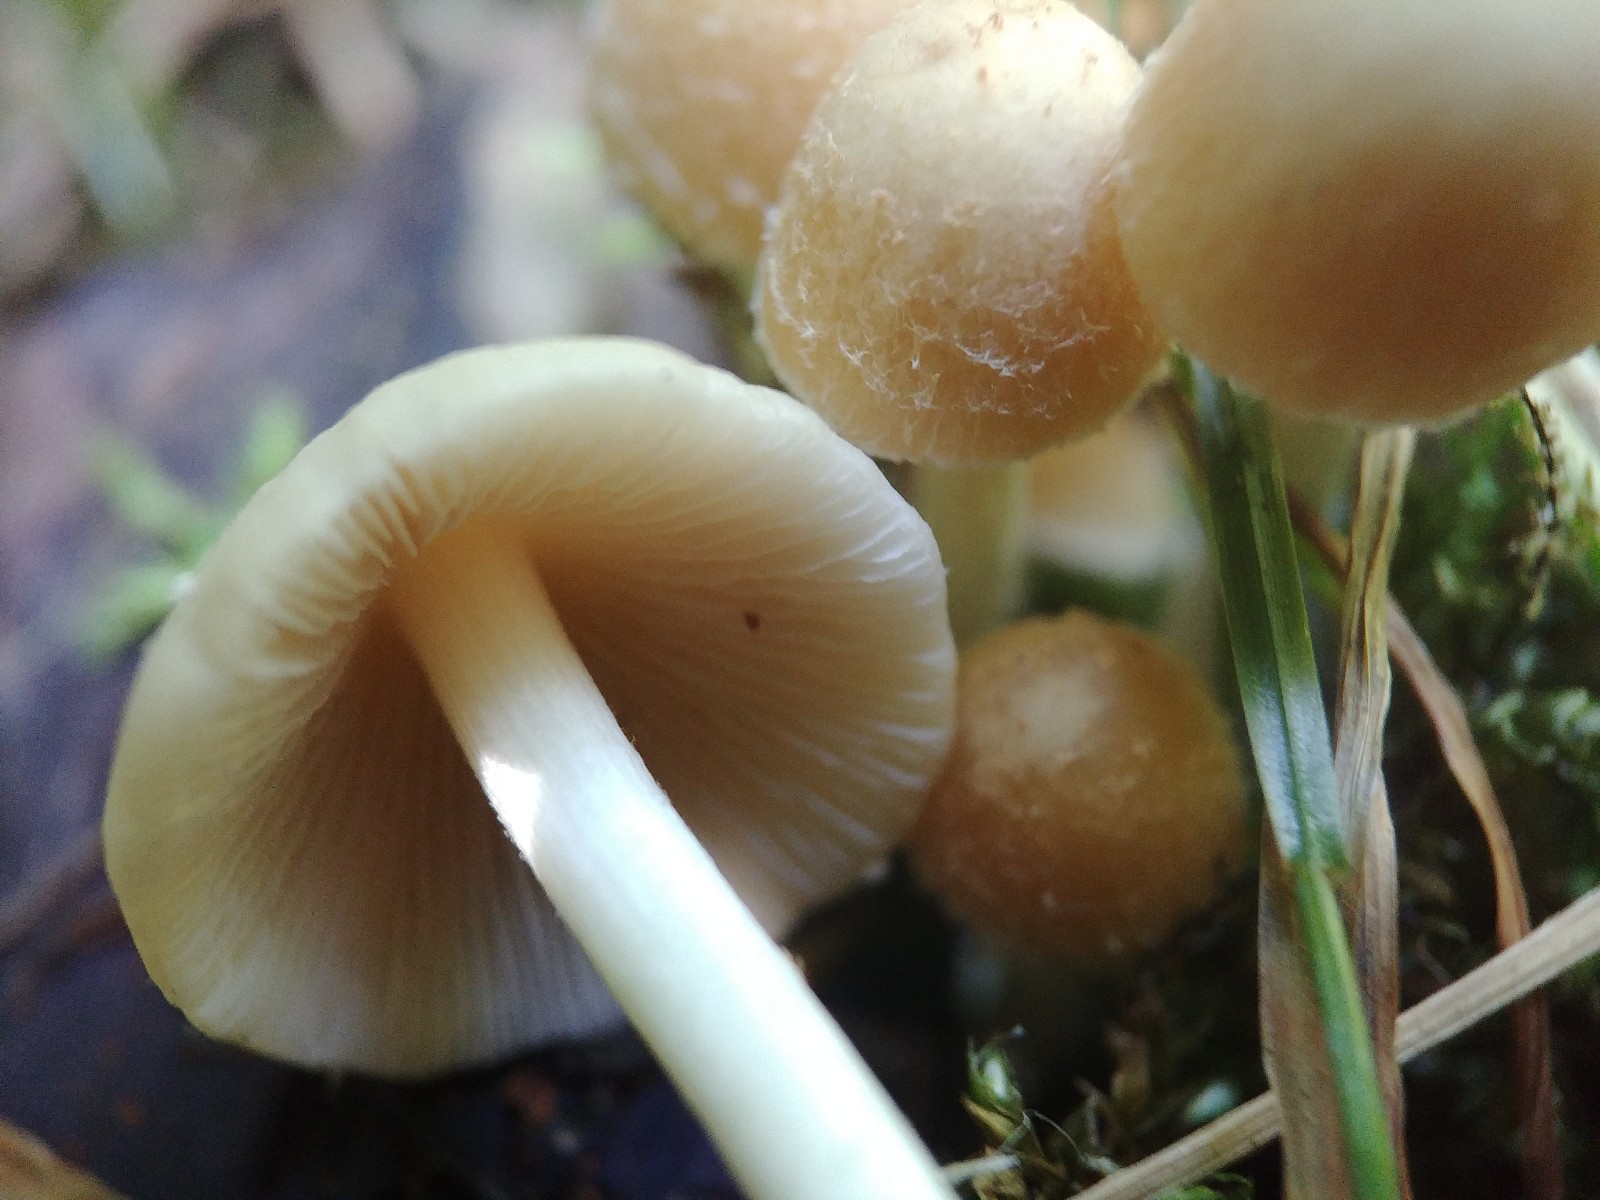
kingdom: Fungi
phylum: Basidiomycota
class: Agaricomycetes
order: Agaricales
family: Psathyrellaceae
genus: Psathyrella
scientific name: Psathyrella
